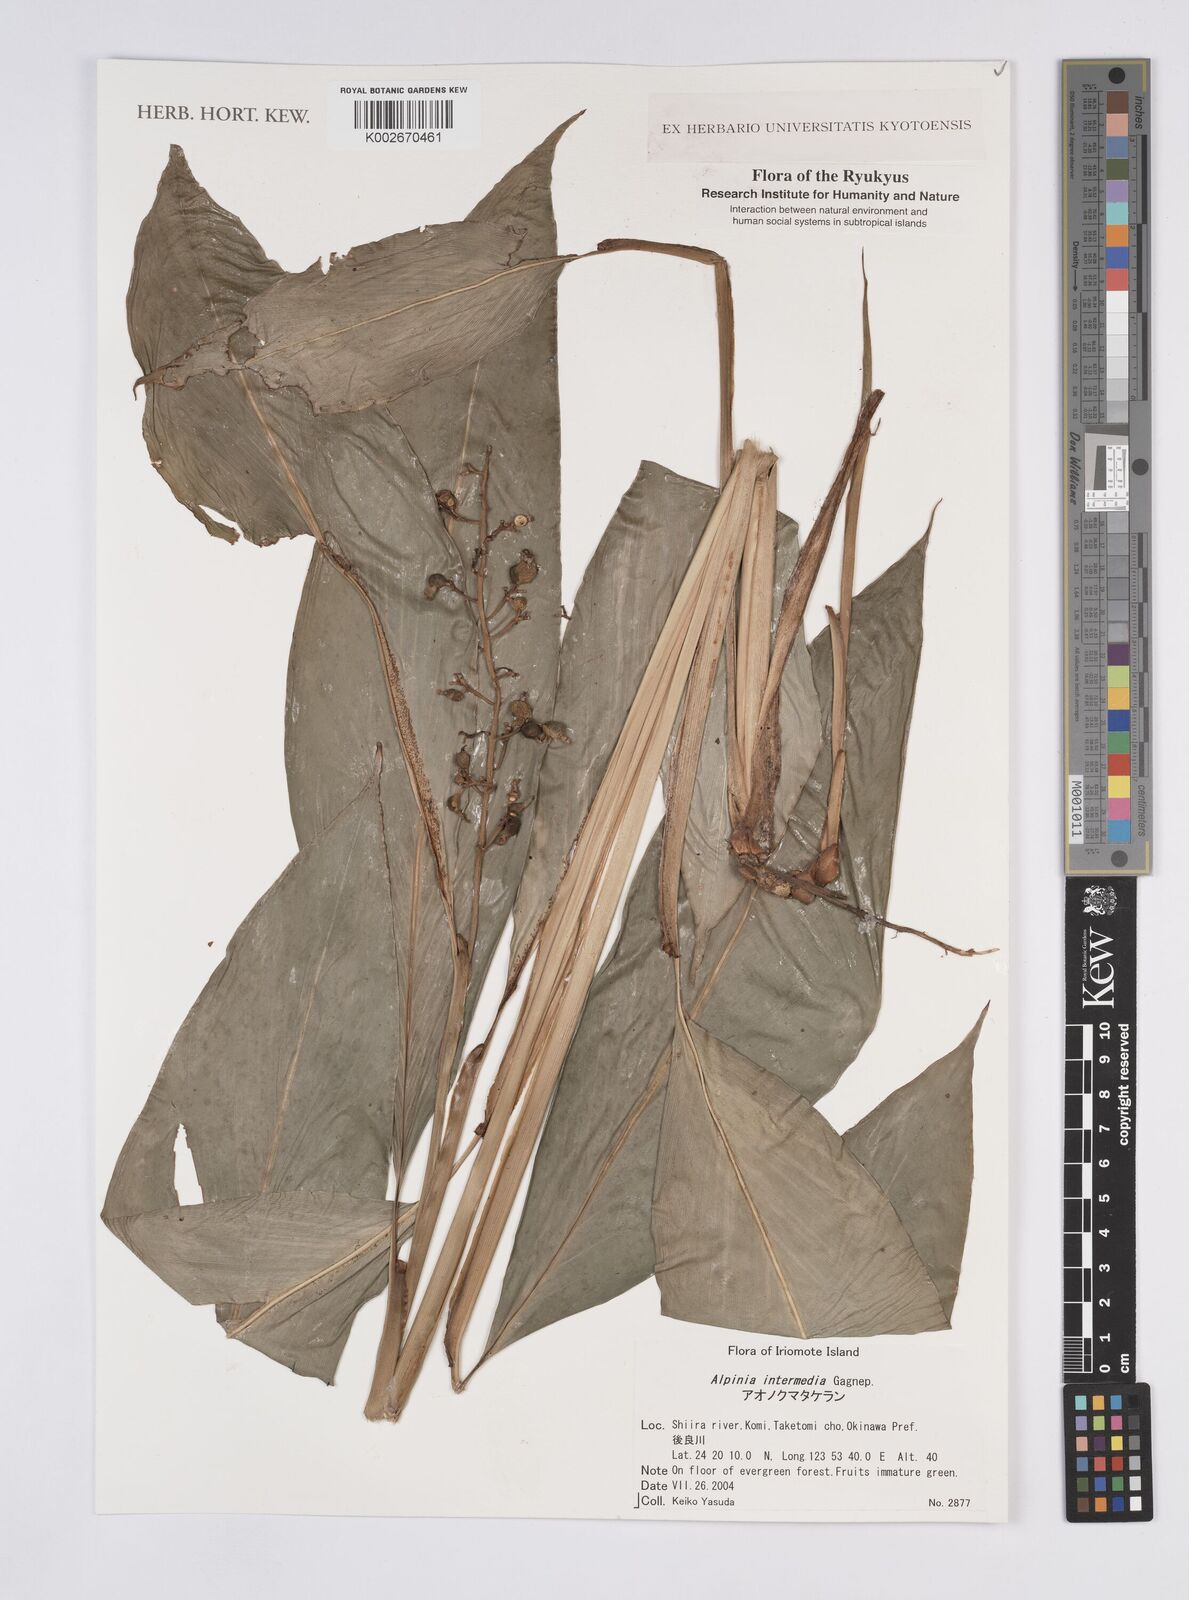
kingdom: Plantae
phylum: Tracheophyta
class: Liliopsida
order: Zingiberales
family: Zingiberaceae
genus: Alpinia
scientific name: Alpinia intermedia
